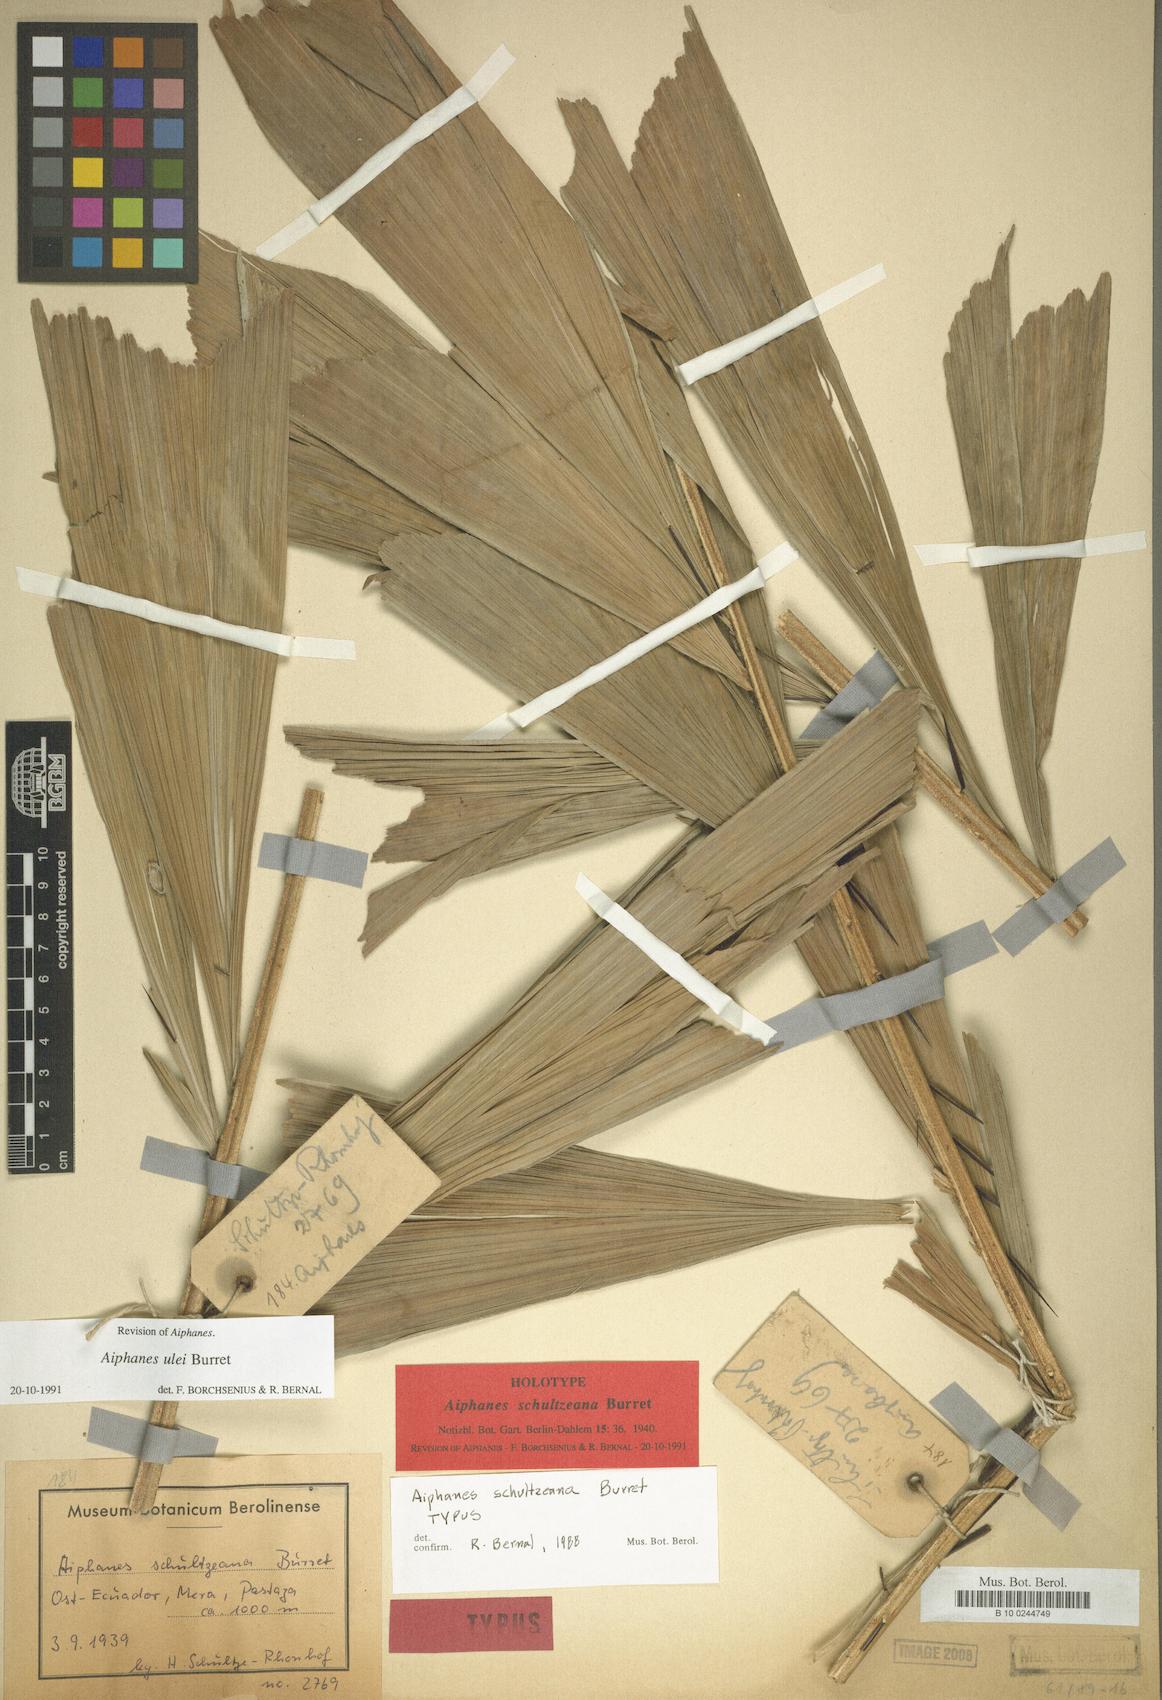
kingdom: Plantae
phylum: Tracheophyta
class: Liliopsida
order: Arecales
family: Arecaceae
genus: Aiphanes
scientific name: Aiphanes ulei
